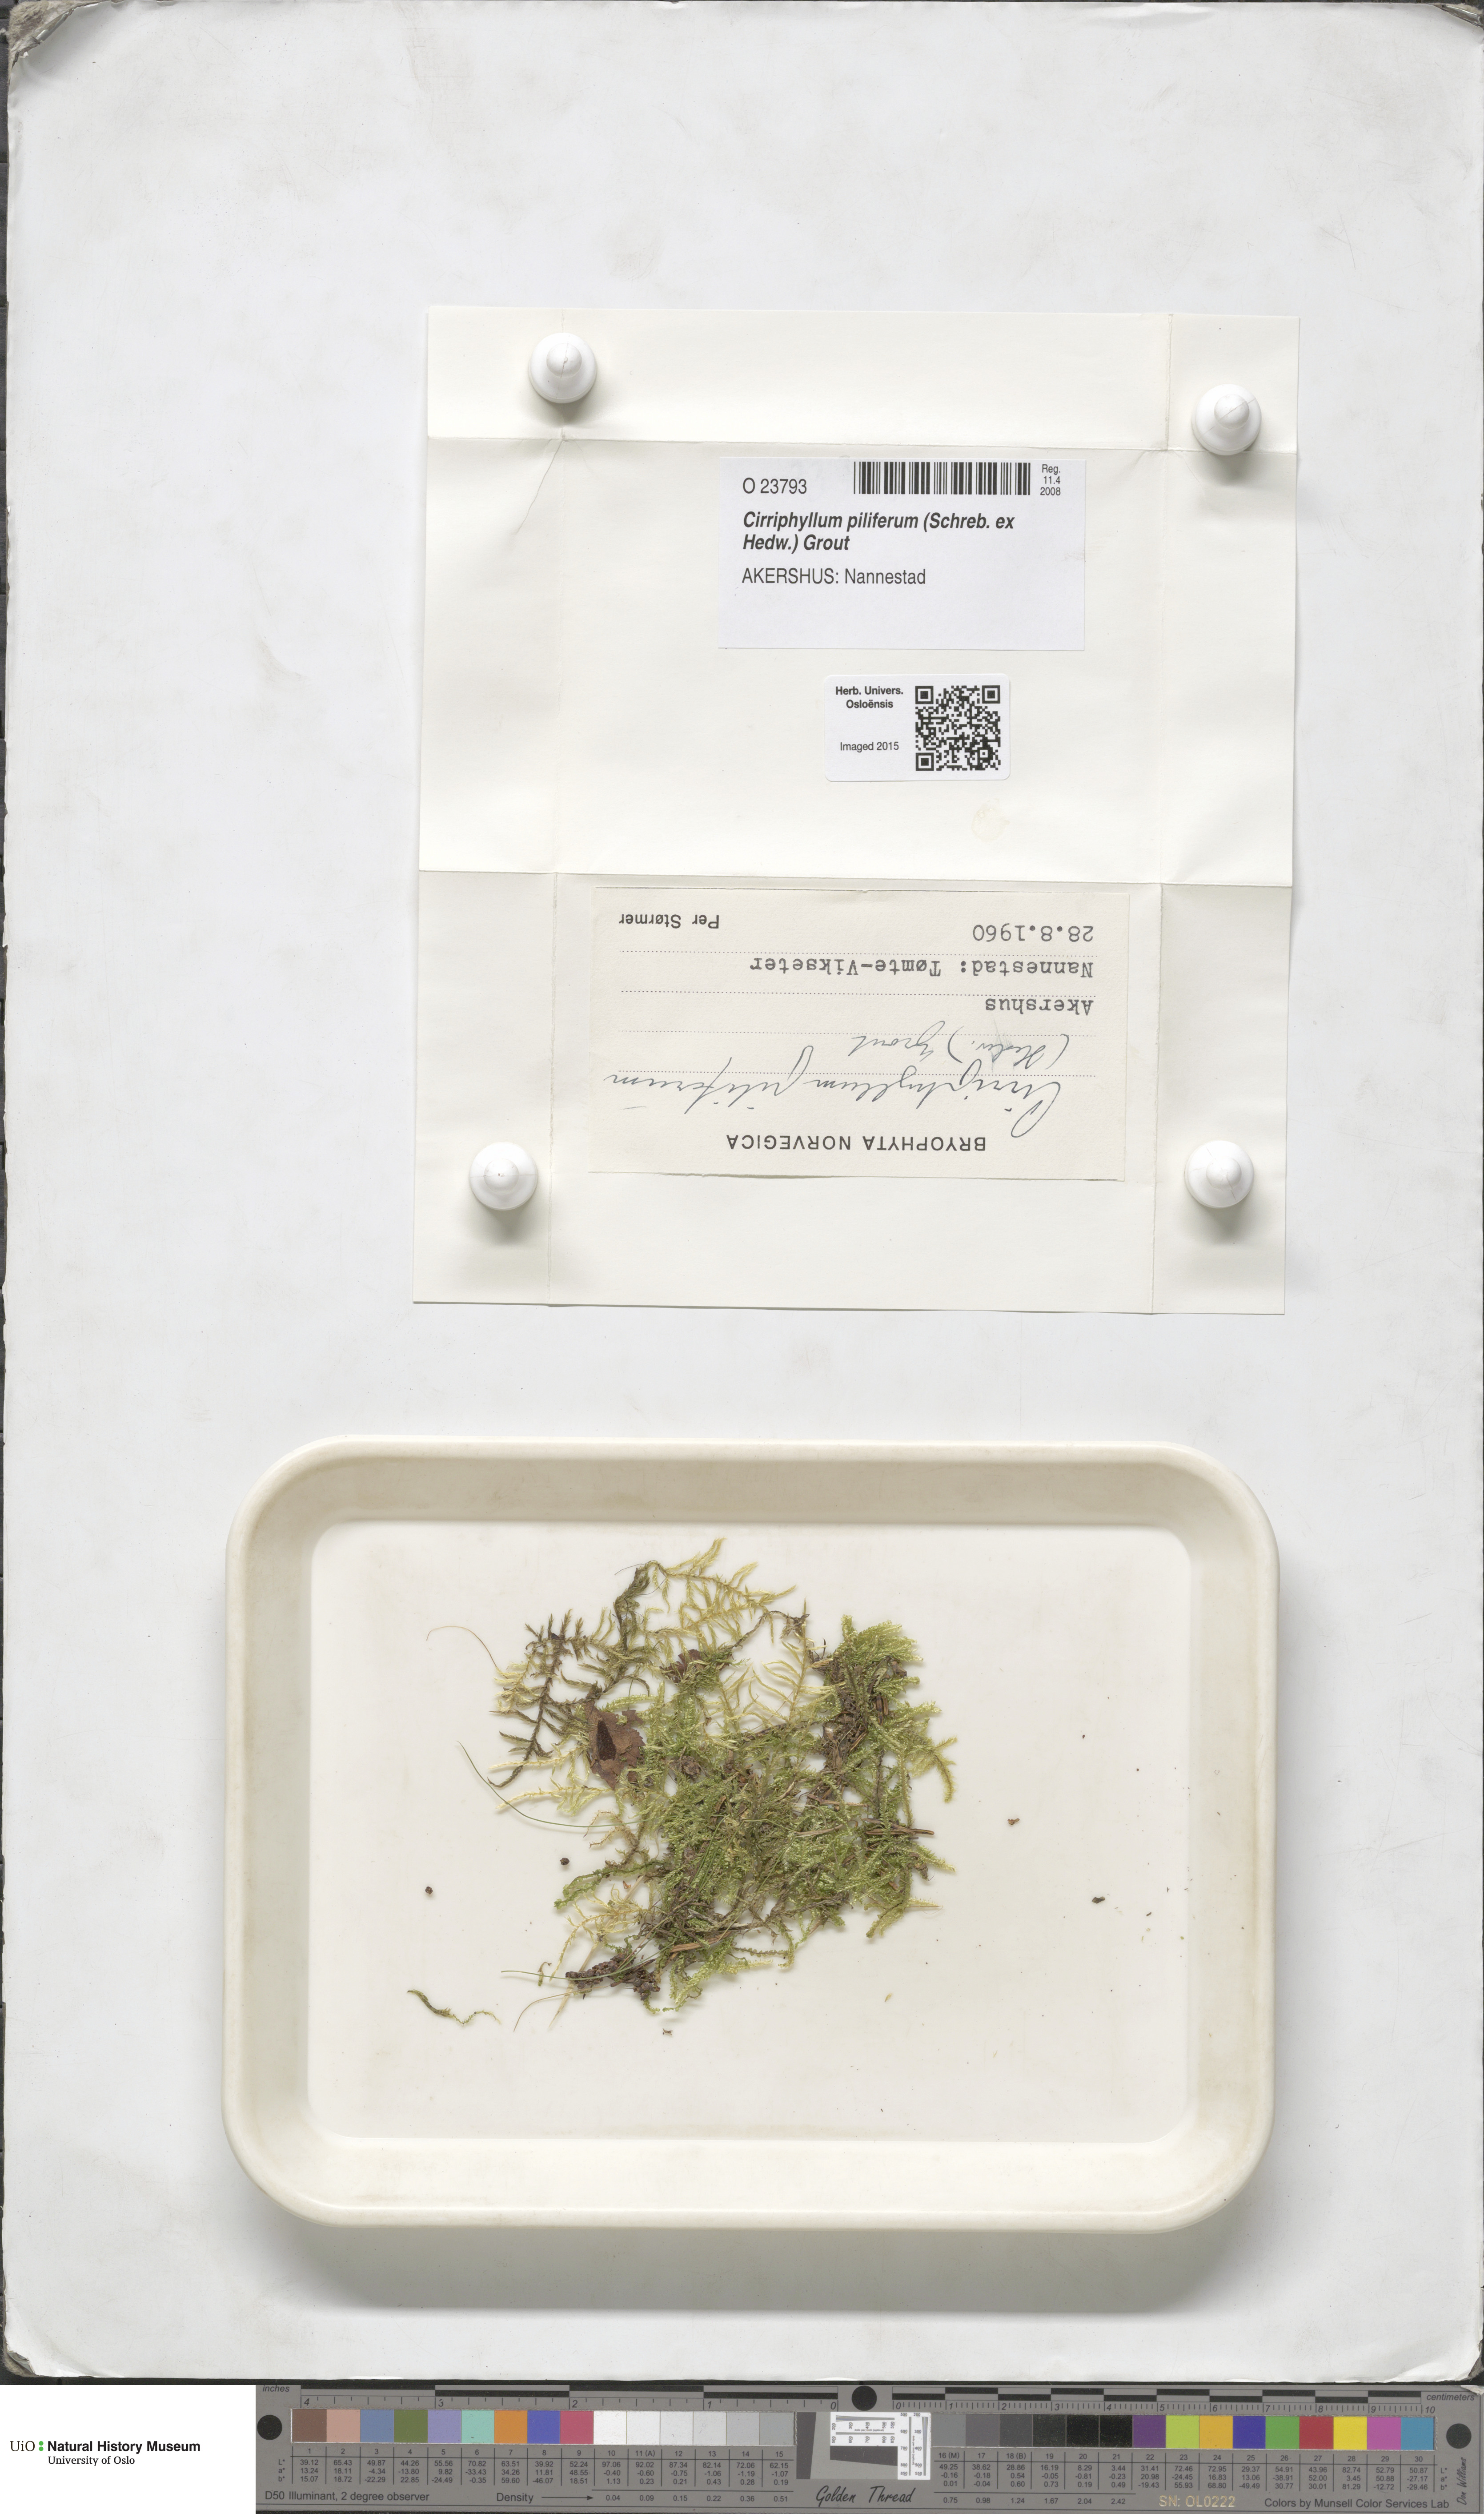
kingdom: Plantae
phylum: Bryophyta
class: Bryopsida
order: Hypnales
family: Brachytheciaceae
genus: Cirriphyllum
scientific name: Cirriphyllum piliferum
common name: Hair-pointed moss
